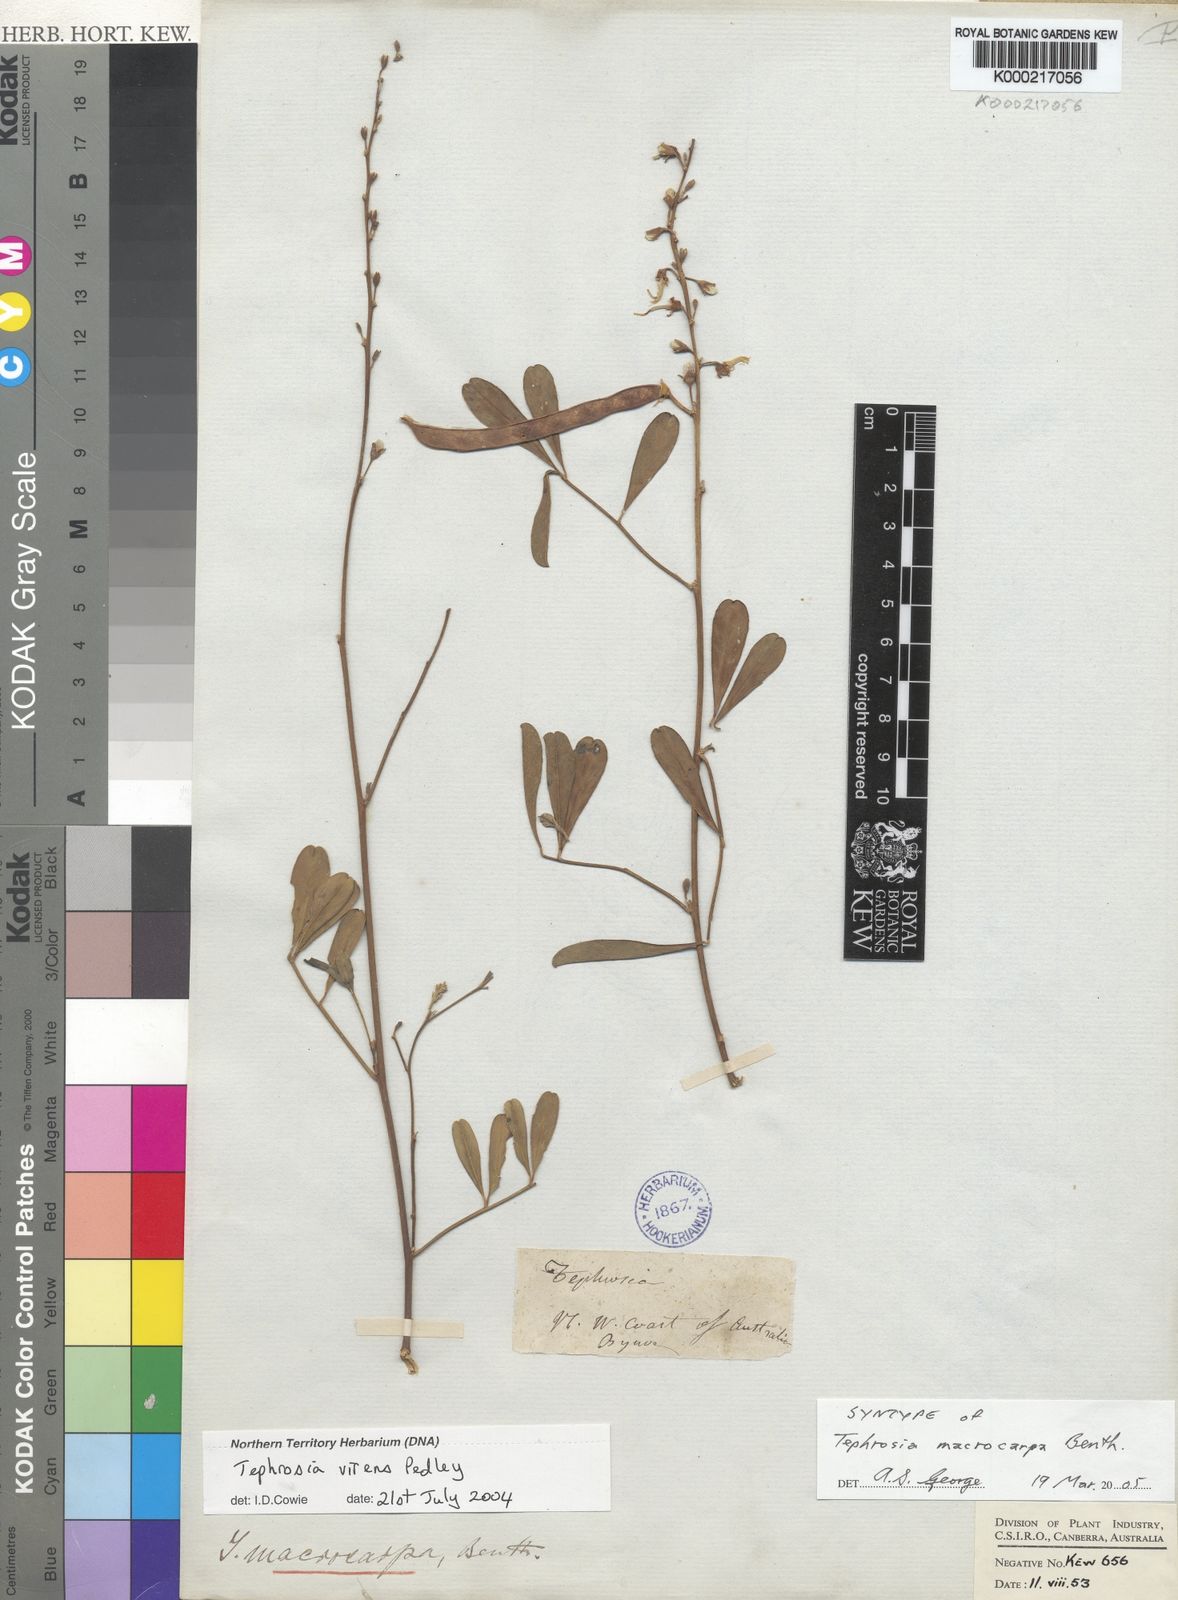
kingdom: Plantae
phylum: Tracheophyta
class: Magnoliopsida
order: Fabales
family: Fabaceae
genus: Tephrosia
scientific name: Tephrosia macrocarpa
